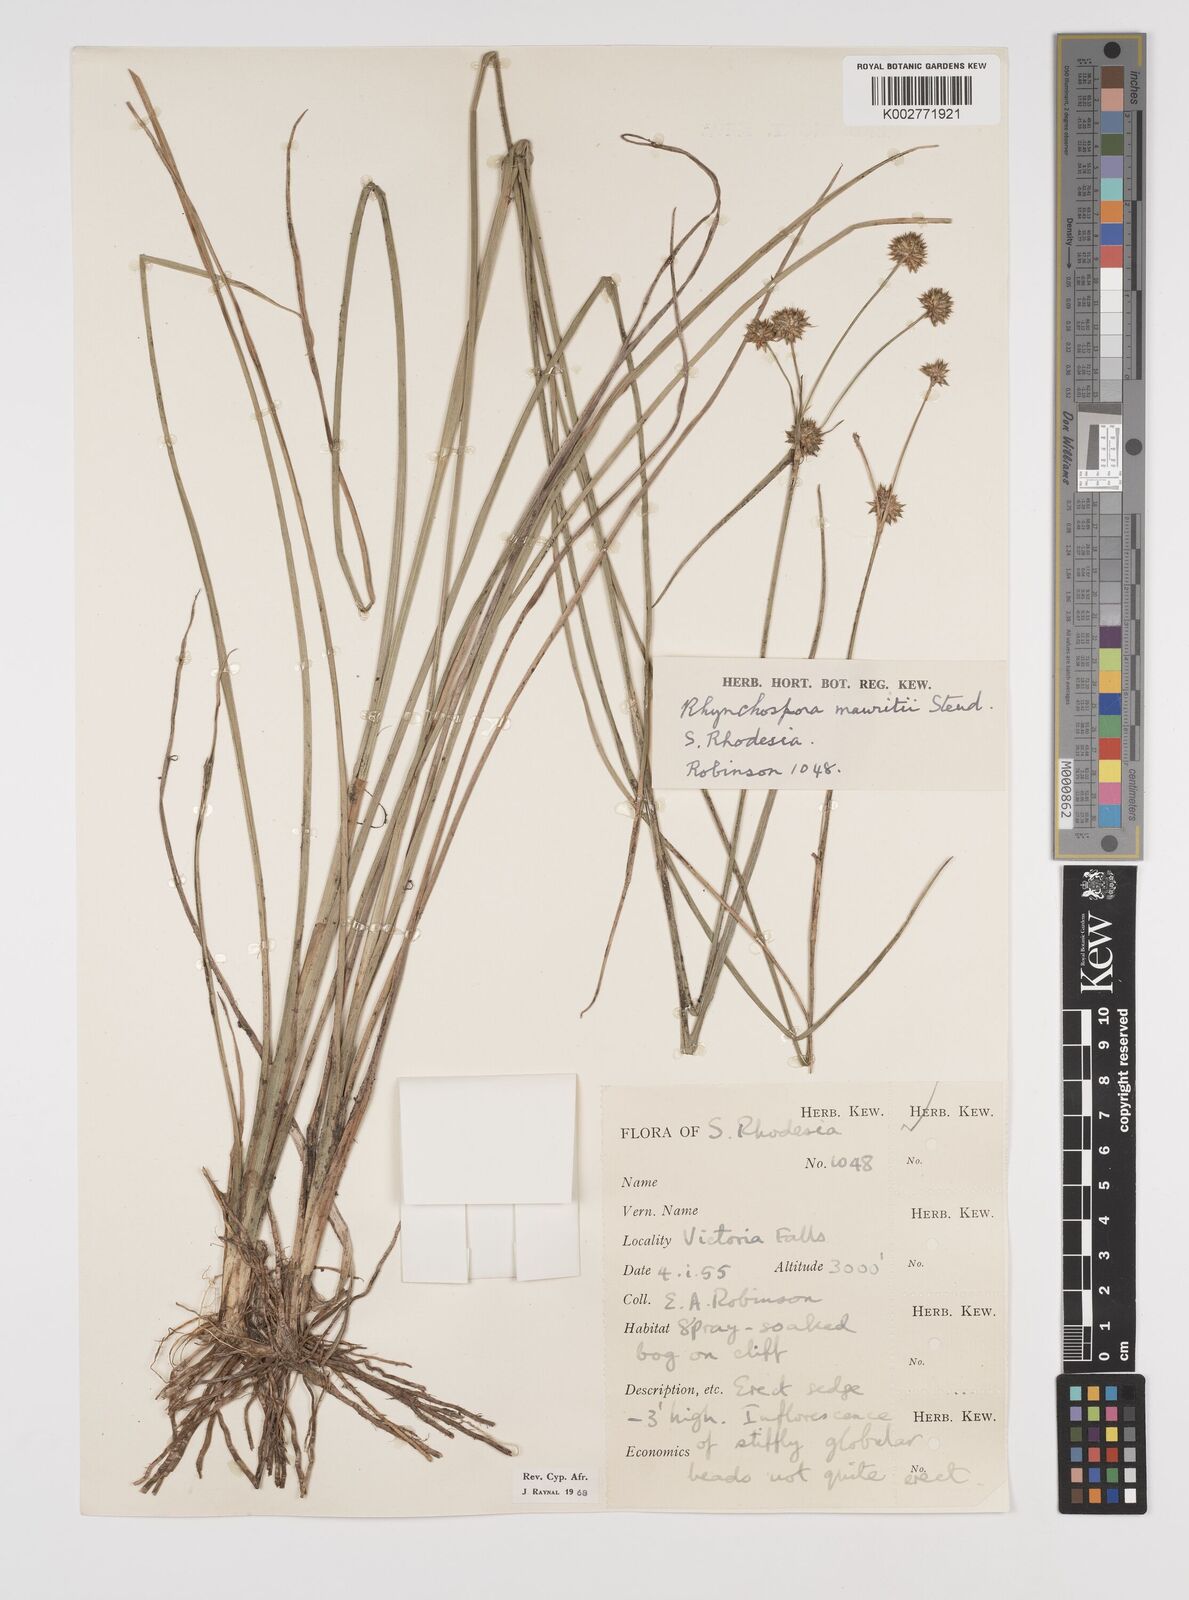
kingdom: Plantae
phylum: Tracheophyta
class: Liliopsida
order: Poales
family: Cyperaceae
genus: Rhynchospora
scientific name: Rhynchospora holoschoenoides
